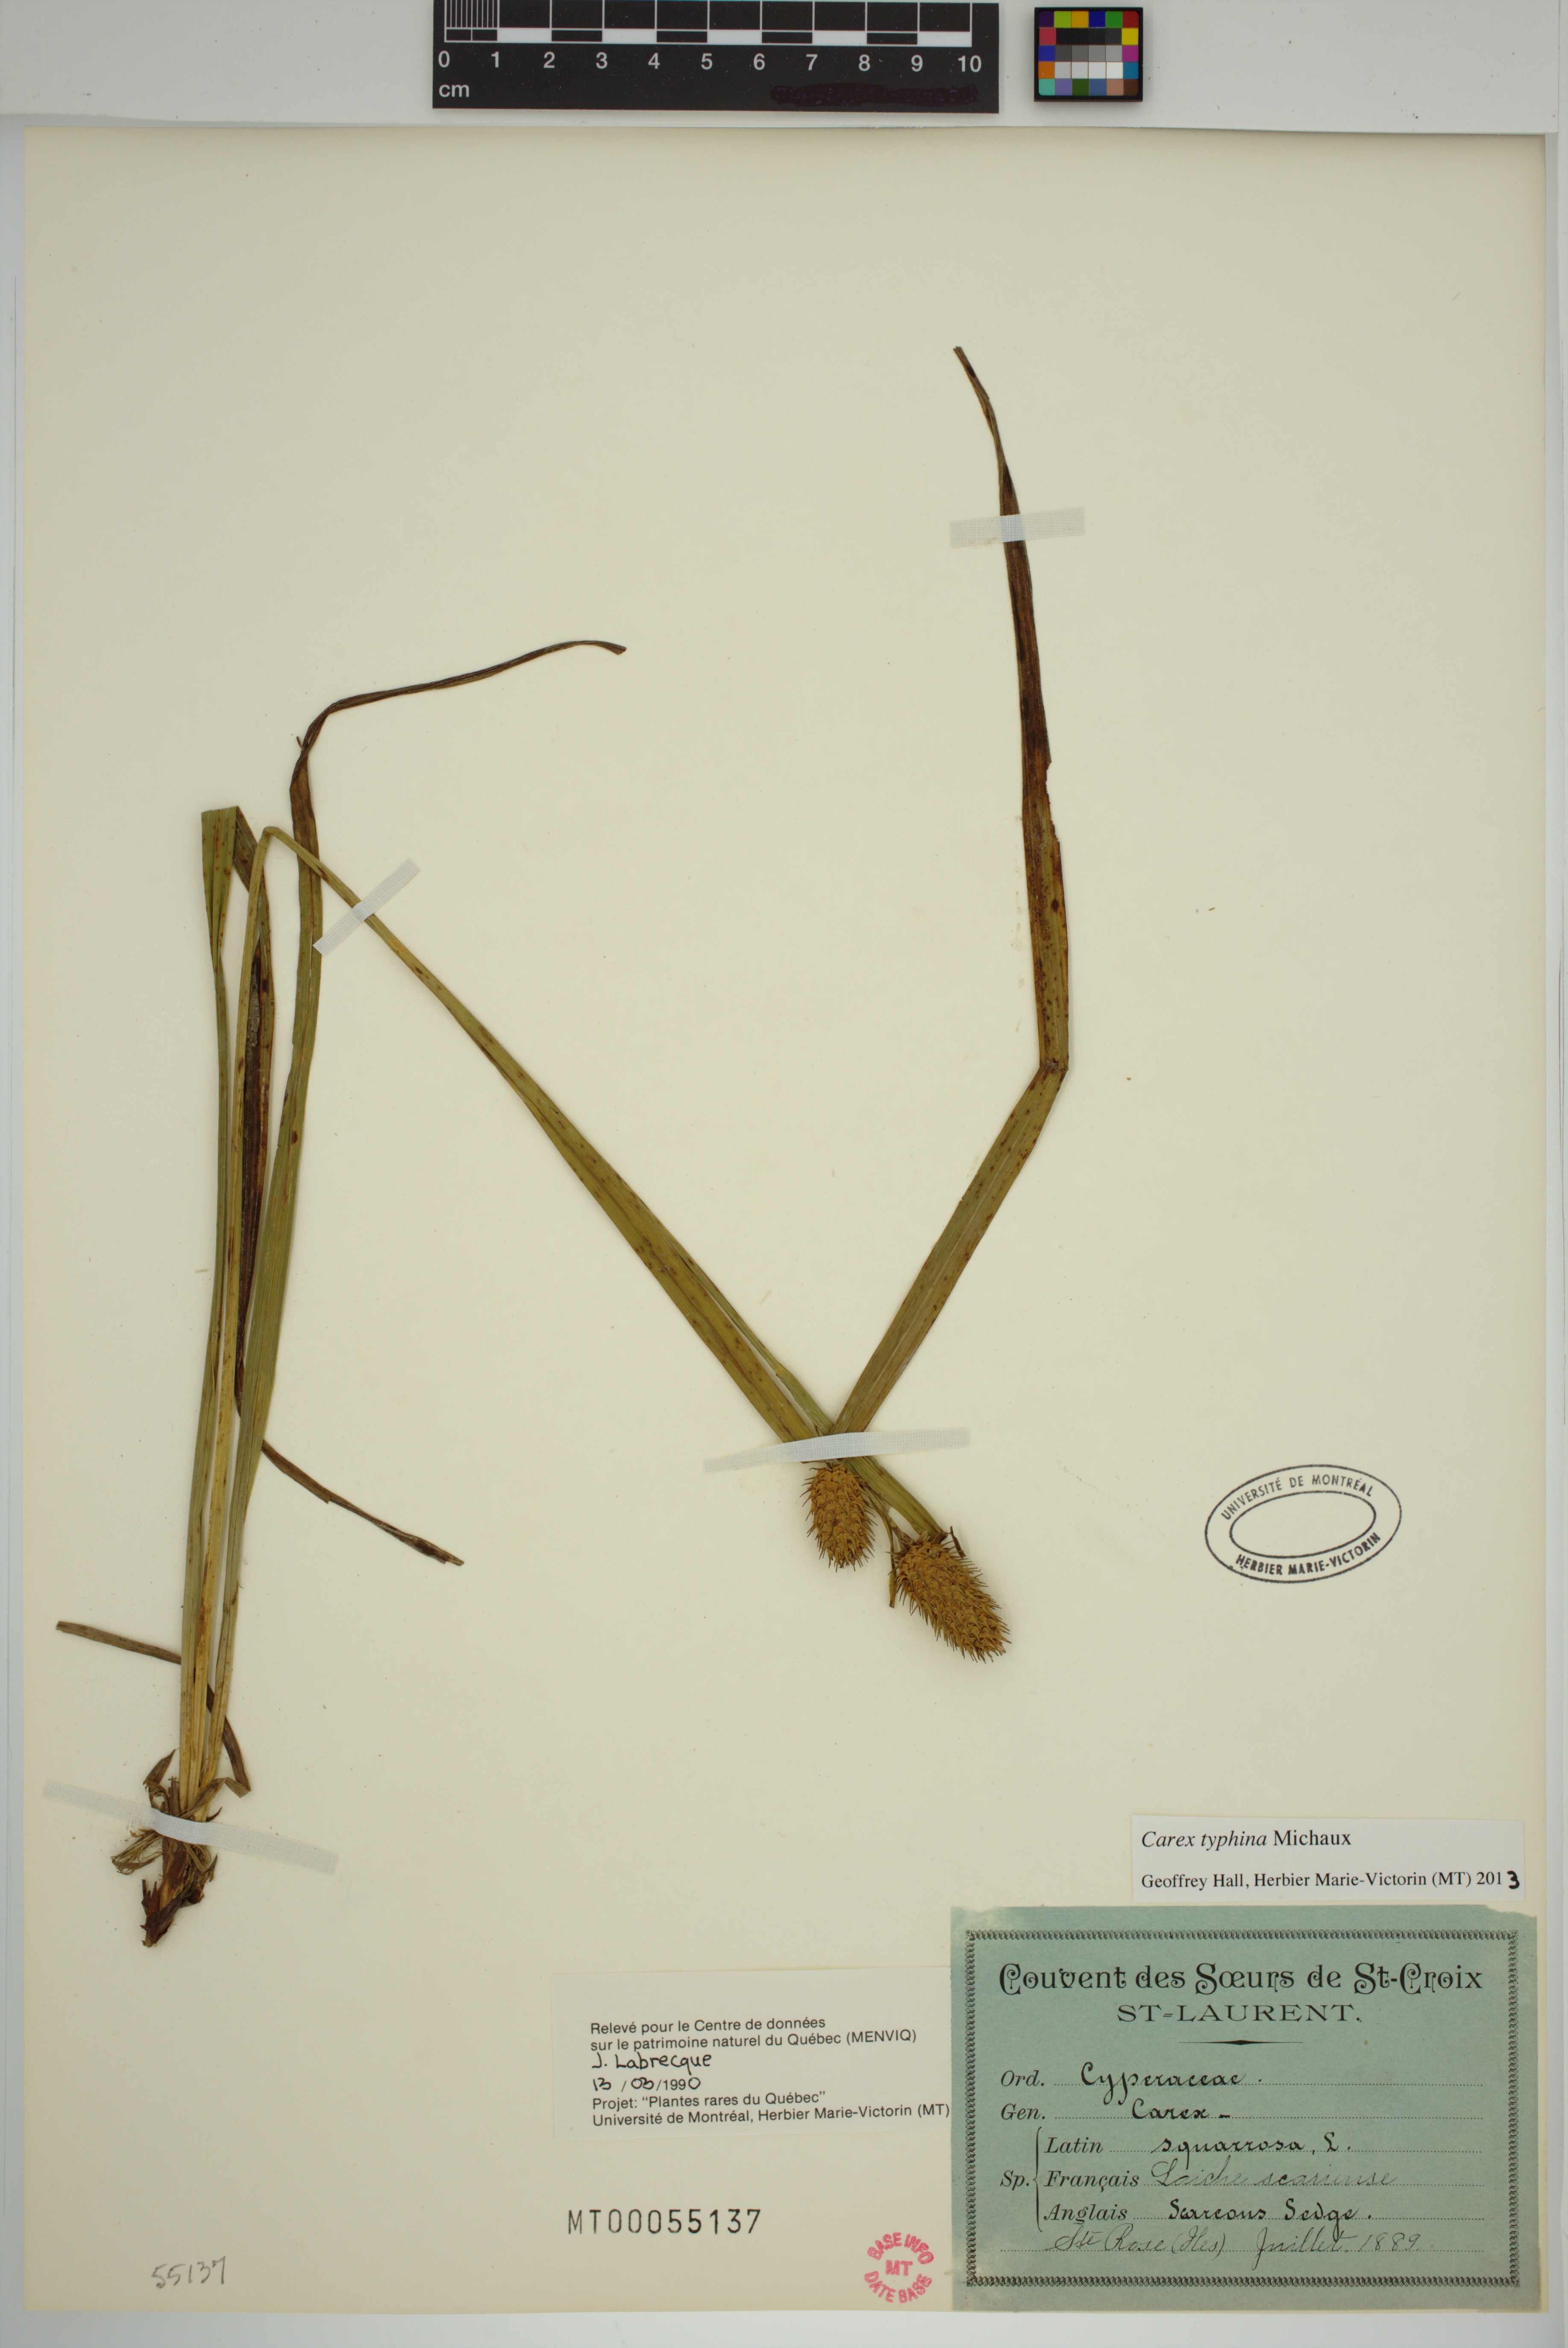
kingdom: Plantae
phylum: Tracheophyta
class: Liliopsida
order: Poales
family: Cyperaceae
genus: Carex
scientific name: Carex typhina
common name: Cattail sedge
